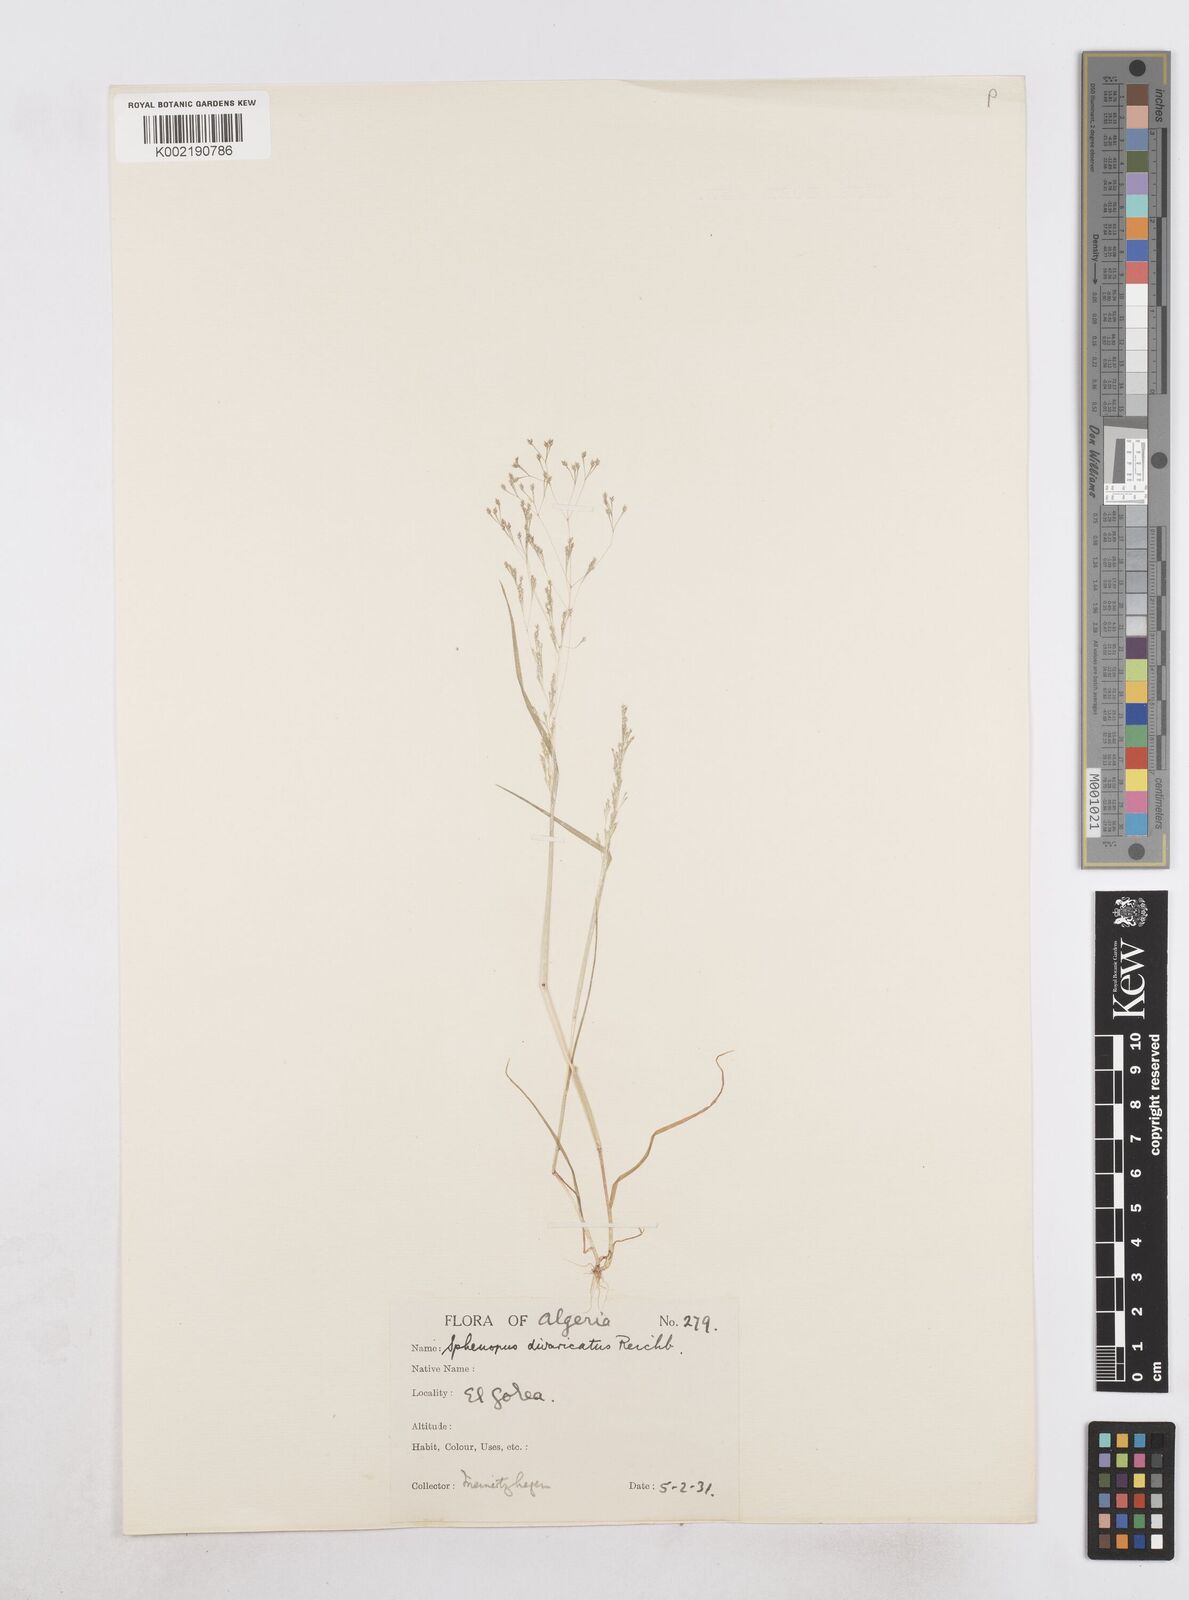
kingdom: Plantae
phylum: Tracheophyta
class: Liliopsida
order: Poales
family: Poaceae
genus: Sphenopus
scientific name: Sphenopus divaricatus
